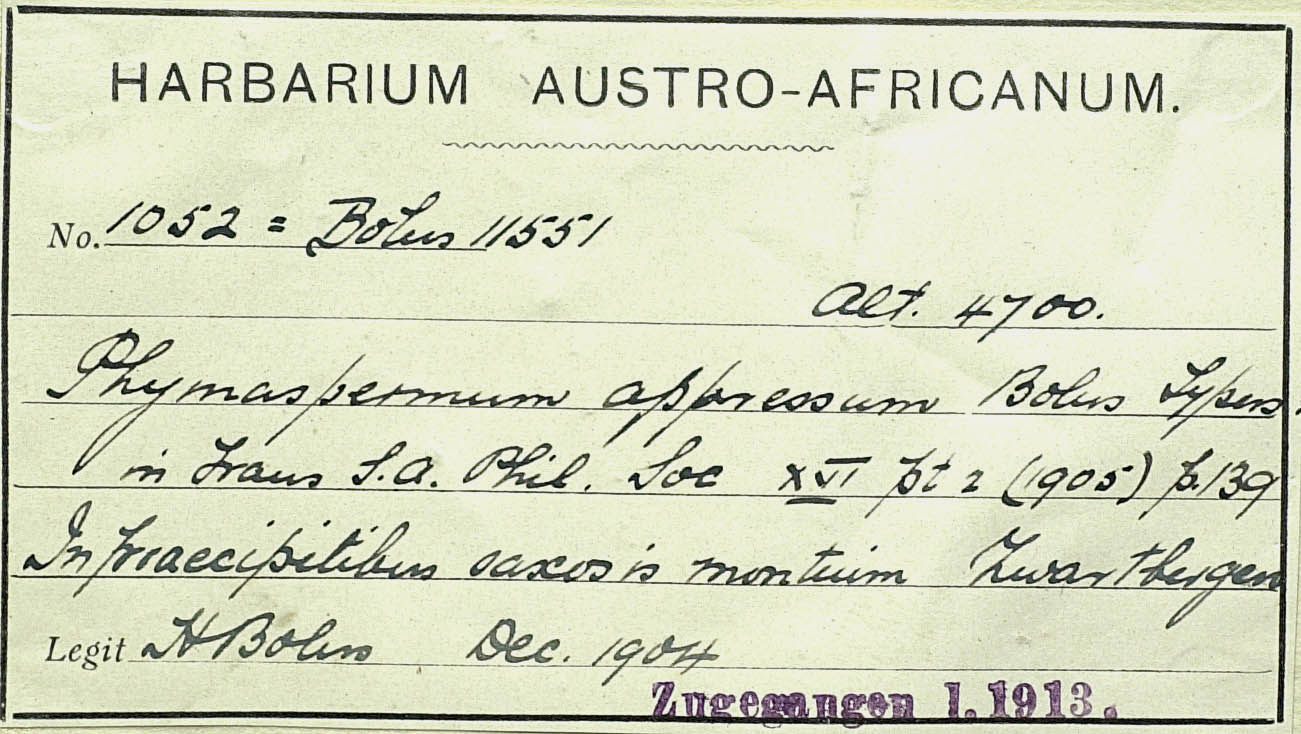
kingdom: Plantae
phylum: Tracheophyta
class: Magnoliopsida
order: Asterales
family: Asteraceae
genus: Phymaspermum
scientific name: Phymaspermum appressum
